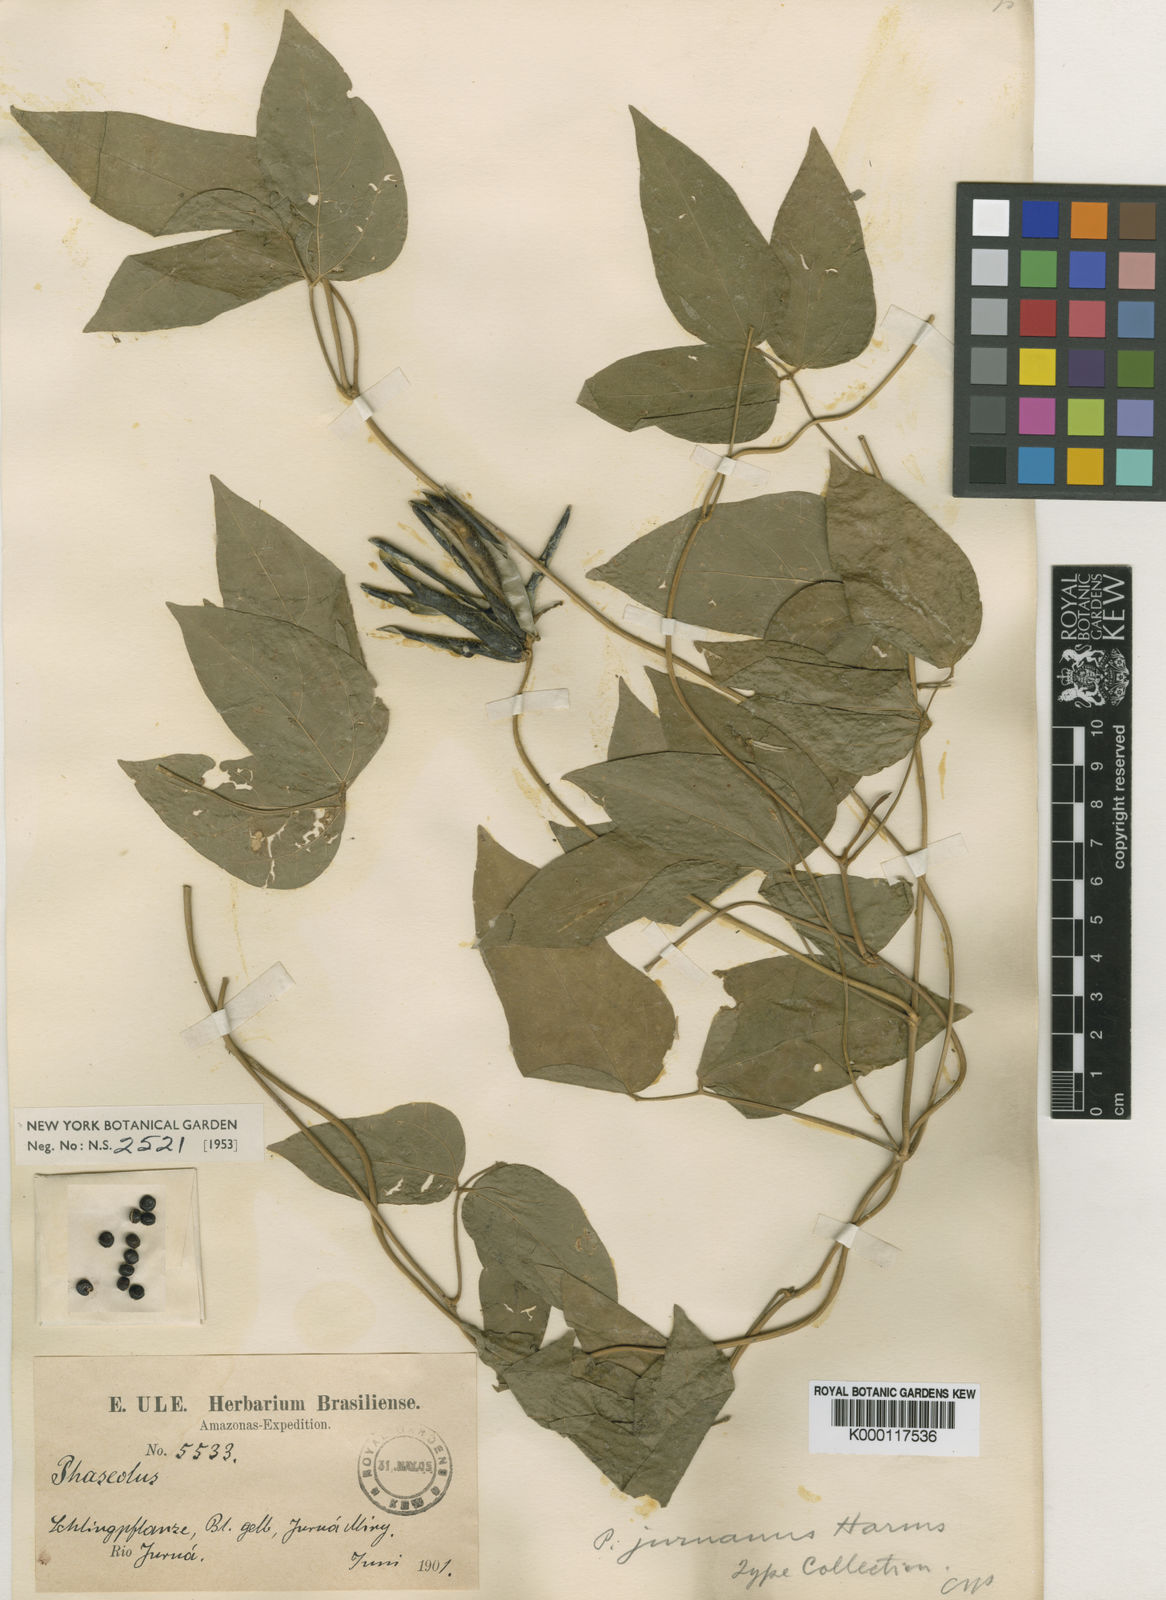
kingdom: Plantae
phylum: Tracheophyta
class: Magnoliopsida
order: Fabales
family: Fabaceae
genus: Vigna
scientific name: Vigna
